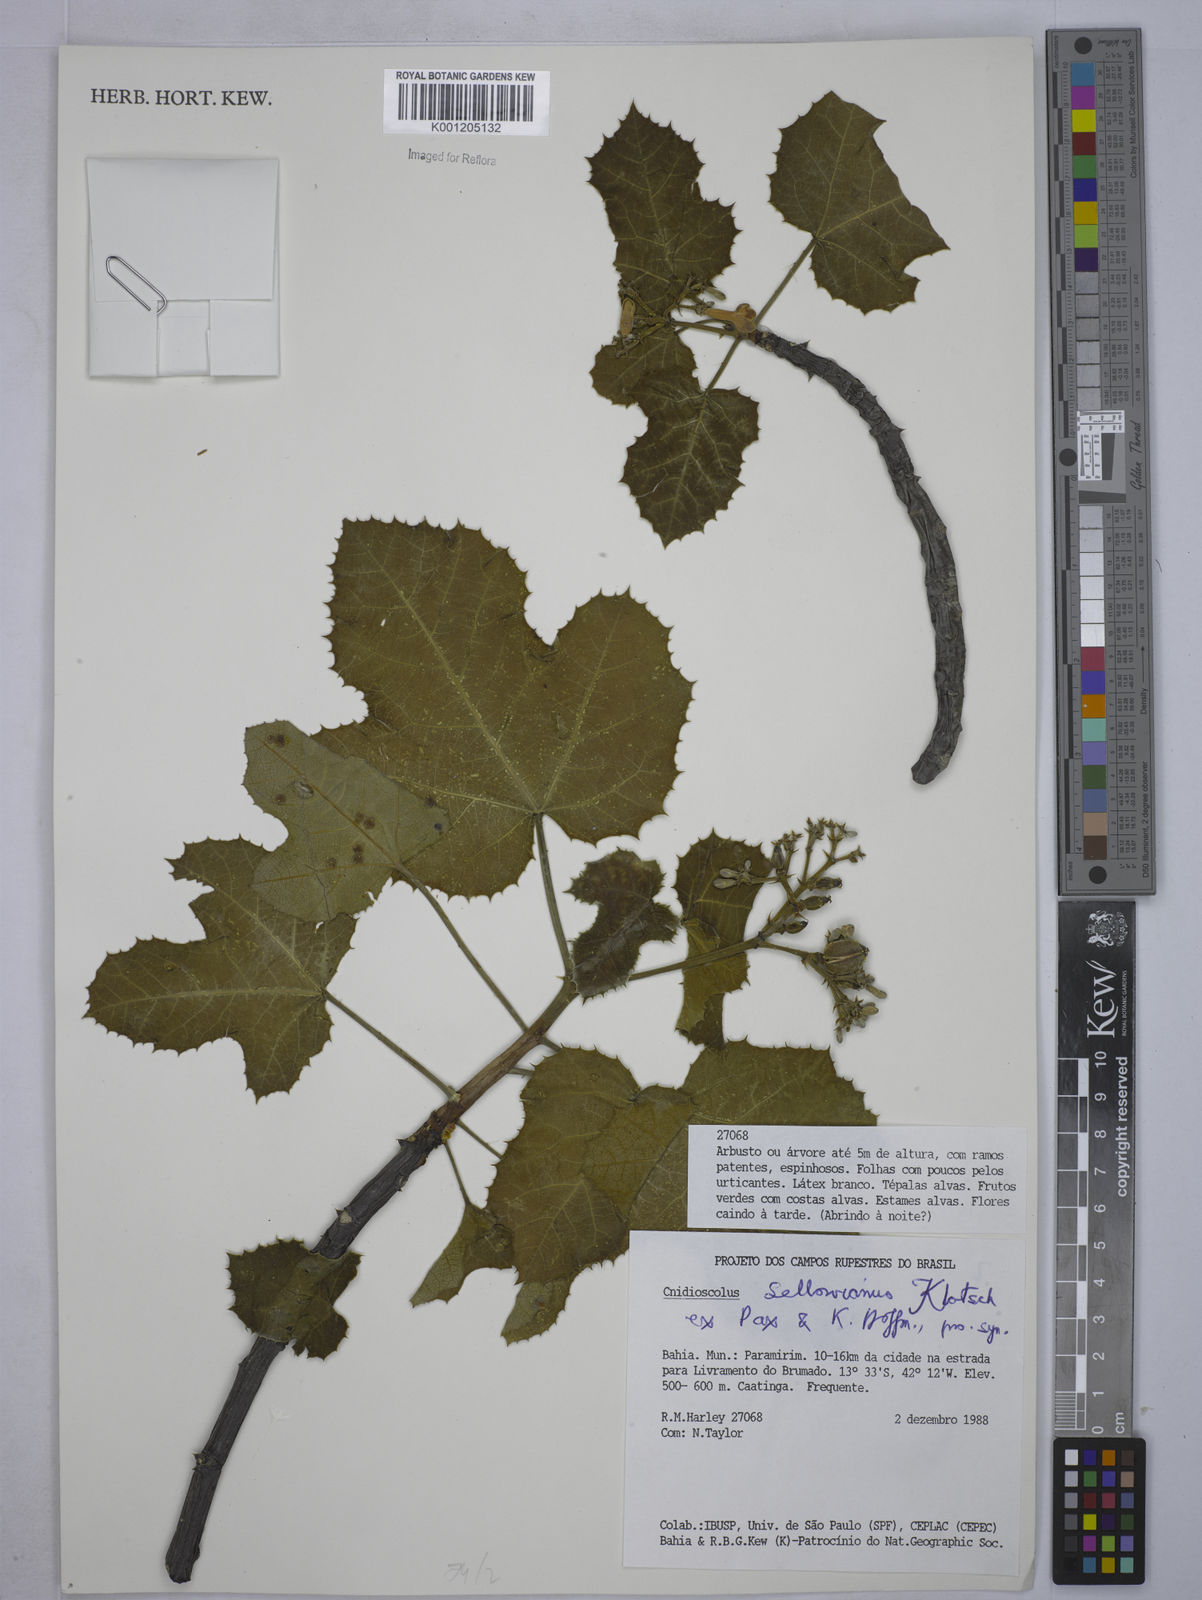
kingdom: Plantae
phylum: Tracheophyta
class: Magnoliopsida
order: Malpighiales
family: Euphorbiaceae
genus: Cnidoscolus
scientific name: Cnidoscolus sellowianus
